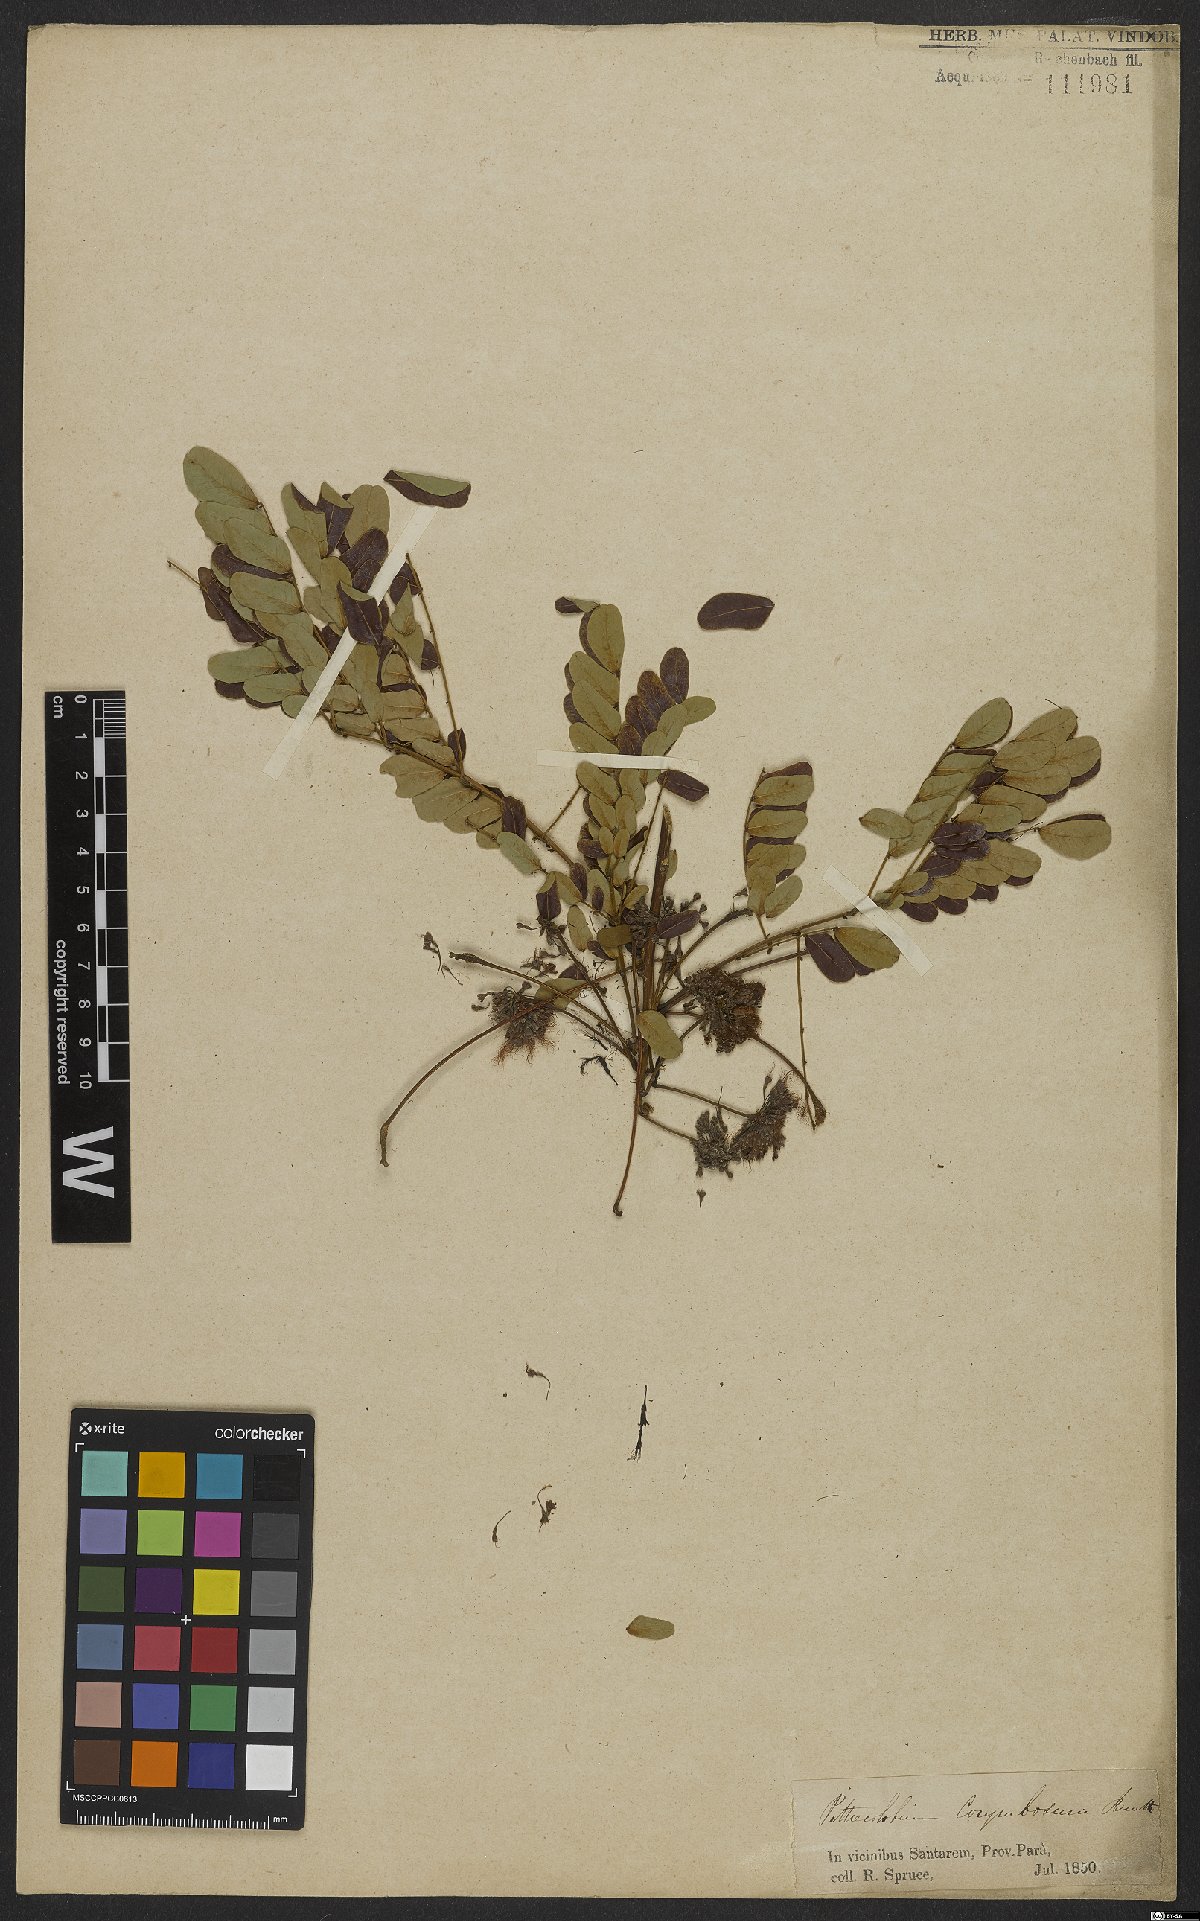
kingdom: Plantae
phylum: Tracheophyta
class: Magnoliopsida
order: Fabales
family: Fabaceae
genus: Hydrochorea
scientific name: Hydrochorea corymbosa
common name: Swamp manariballi
